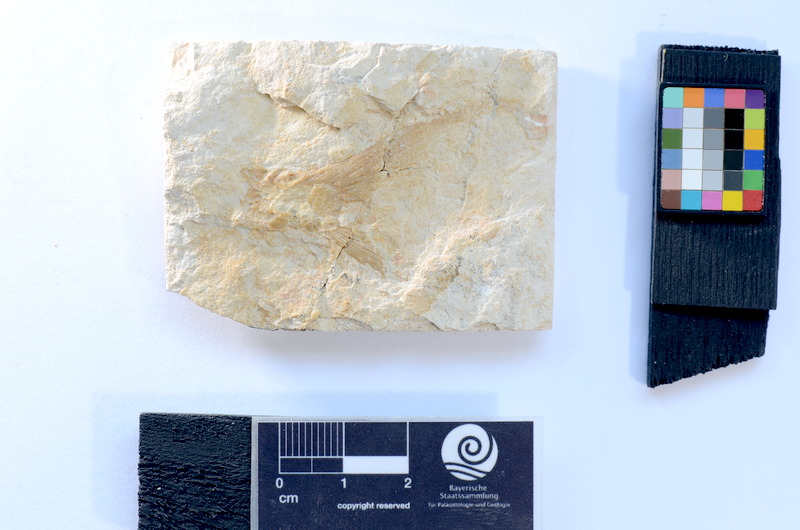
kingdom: Animalia
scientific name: Animalia
